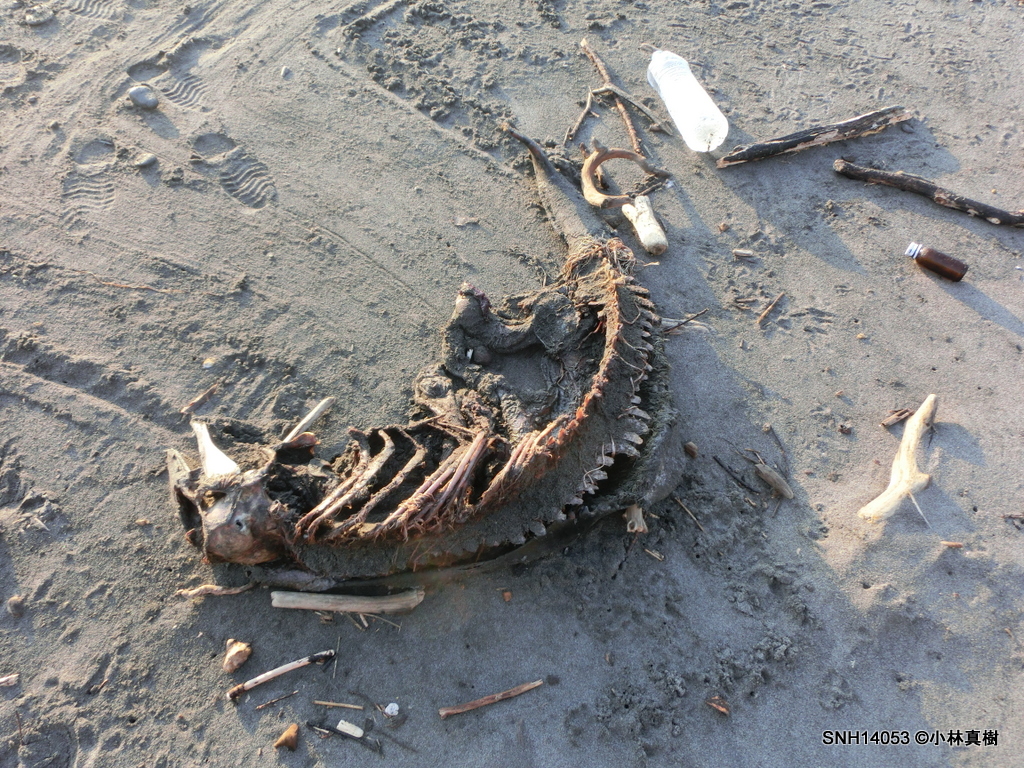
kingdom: Animalia
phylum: Chordata
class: Mammalia
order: Cetacea
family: Phocoenidae
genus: Phocoena
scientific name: Phocoena phocoena
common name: Harbour porpoise
